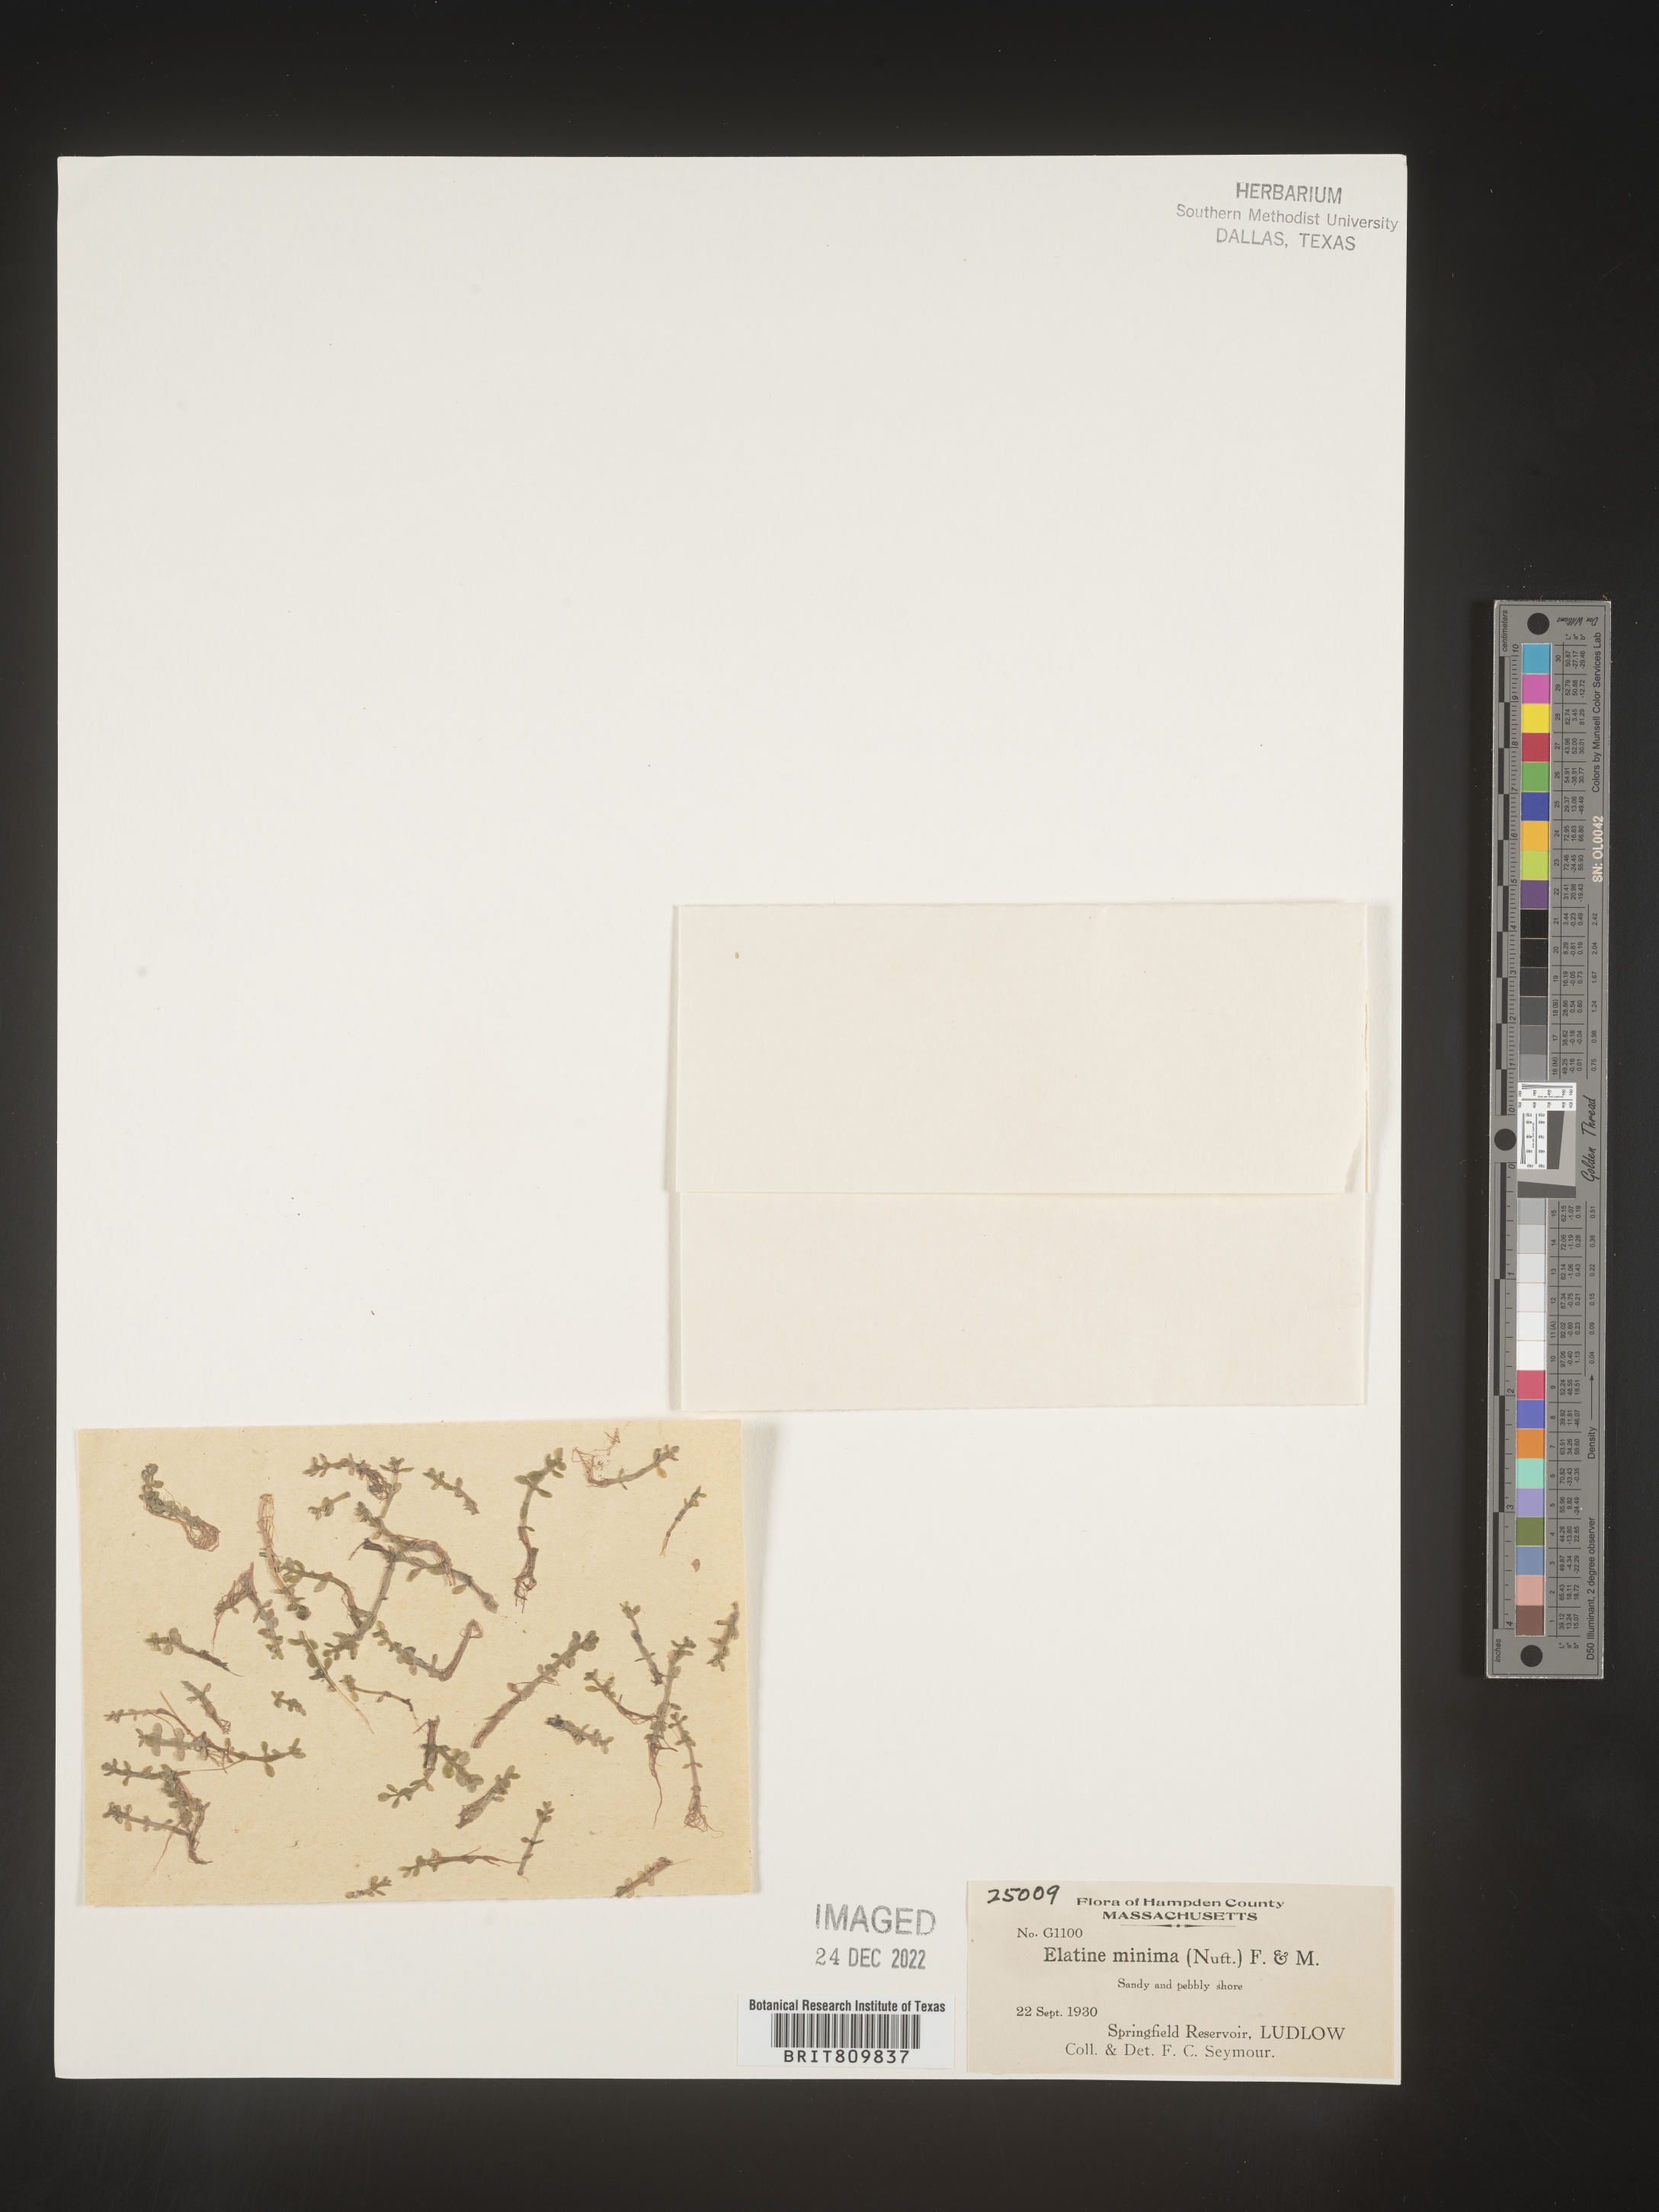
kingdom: Plantae
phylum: Tracheophyta
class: Magnoliopsida
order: Malpighiales
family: Elatinaceae
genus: Elatine
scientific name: Elatine
